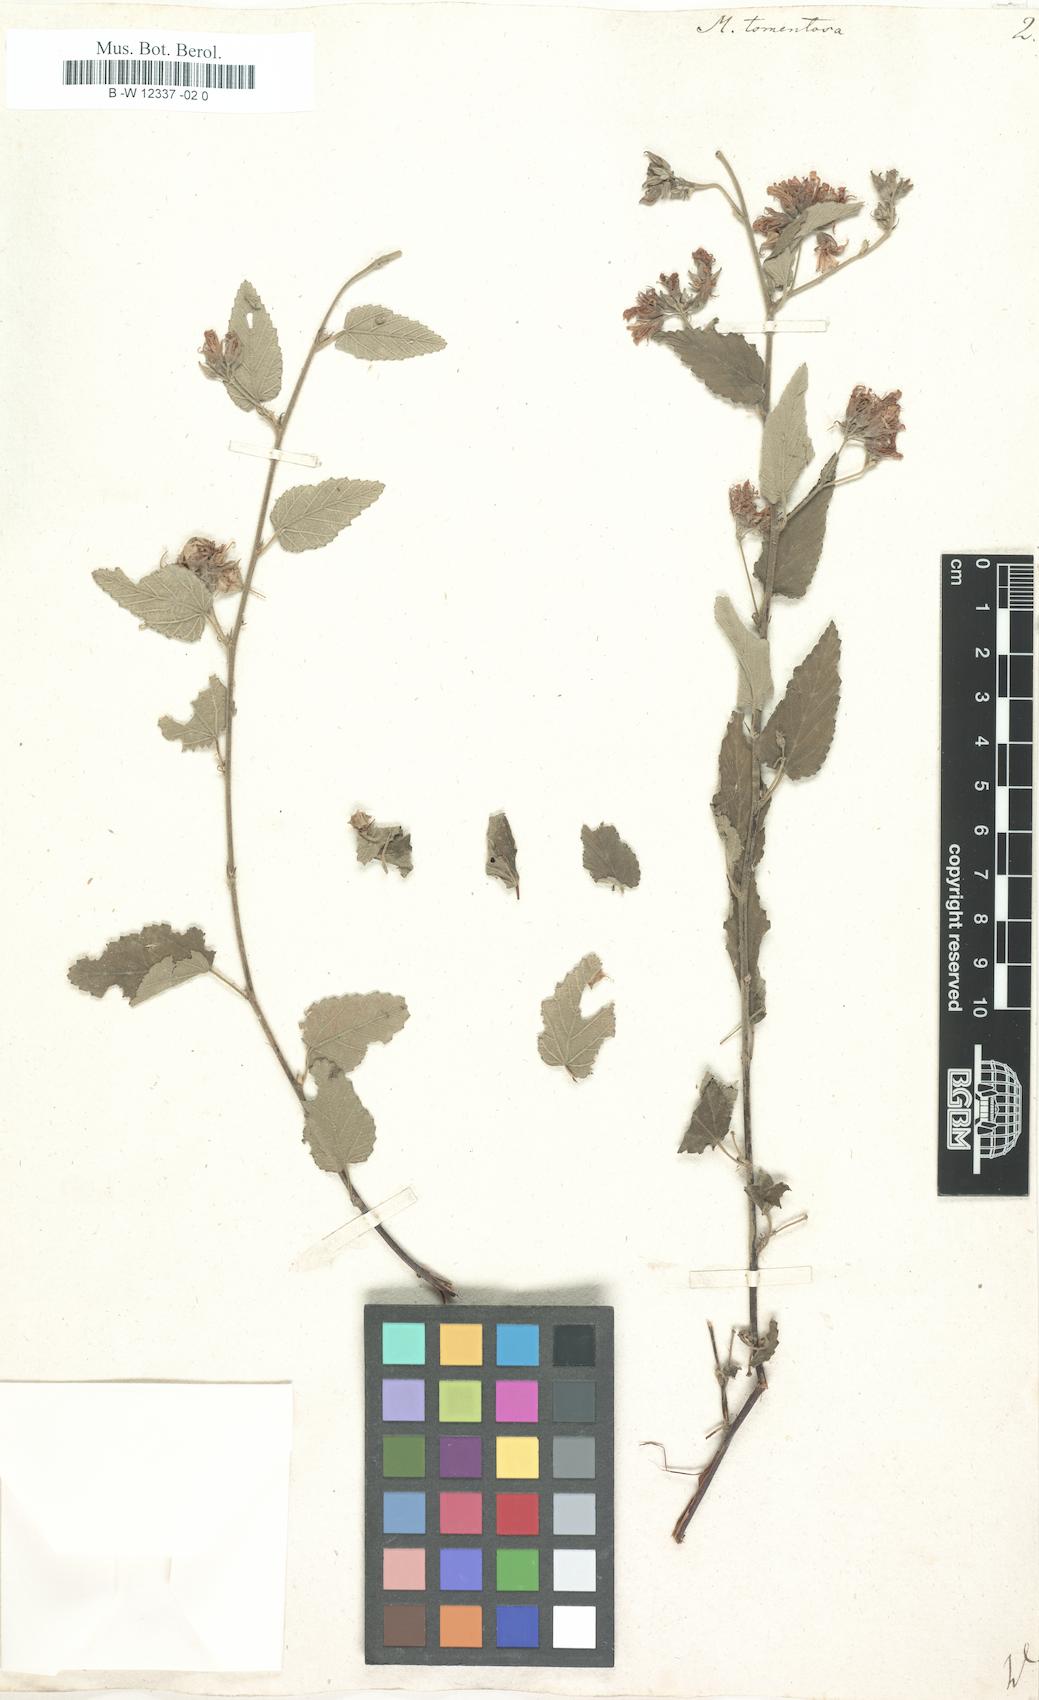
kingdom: Plantae
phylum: Tracheophyta
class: Magnoliopsida
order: Malvales
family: Malvaceae
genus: Melochia
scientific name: Melochia tomentosa
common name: Black torch
